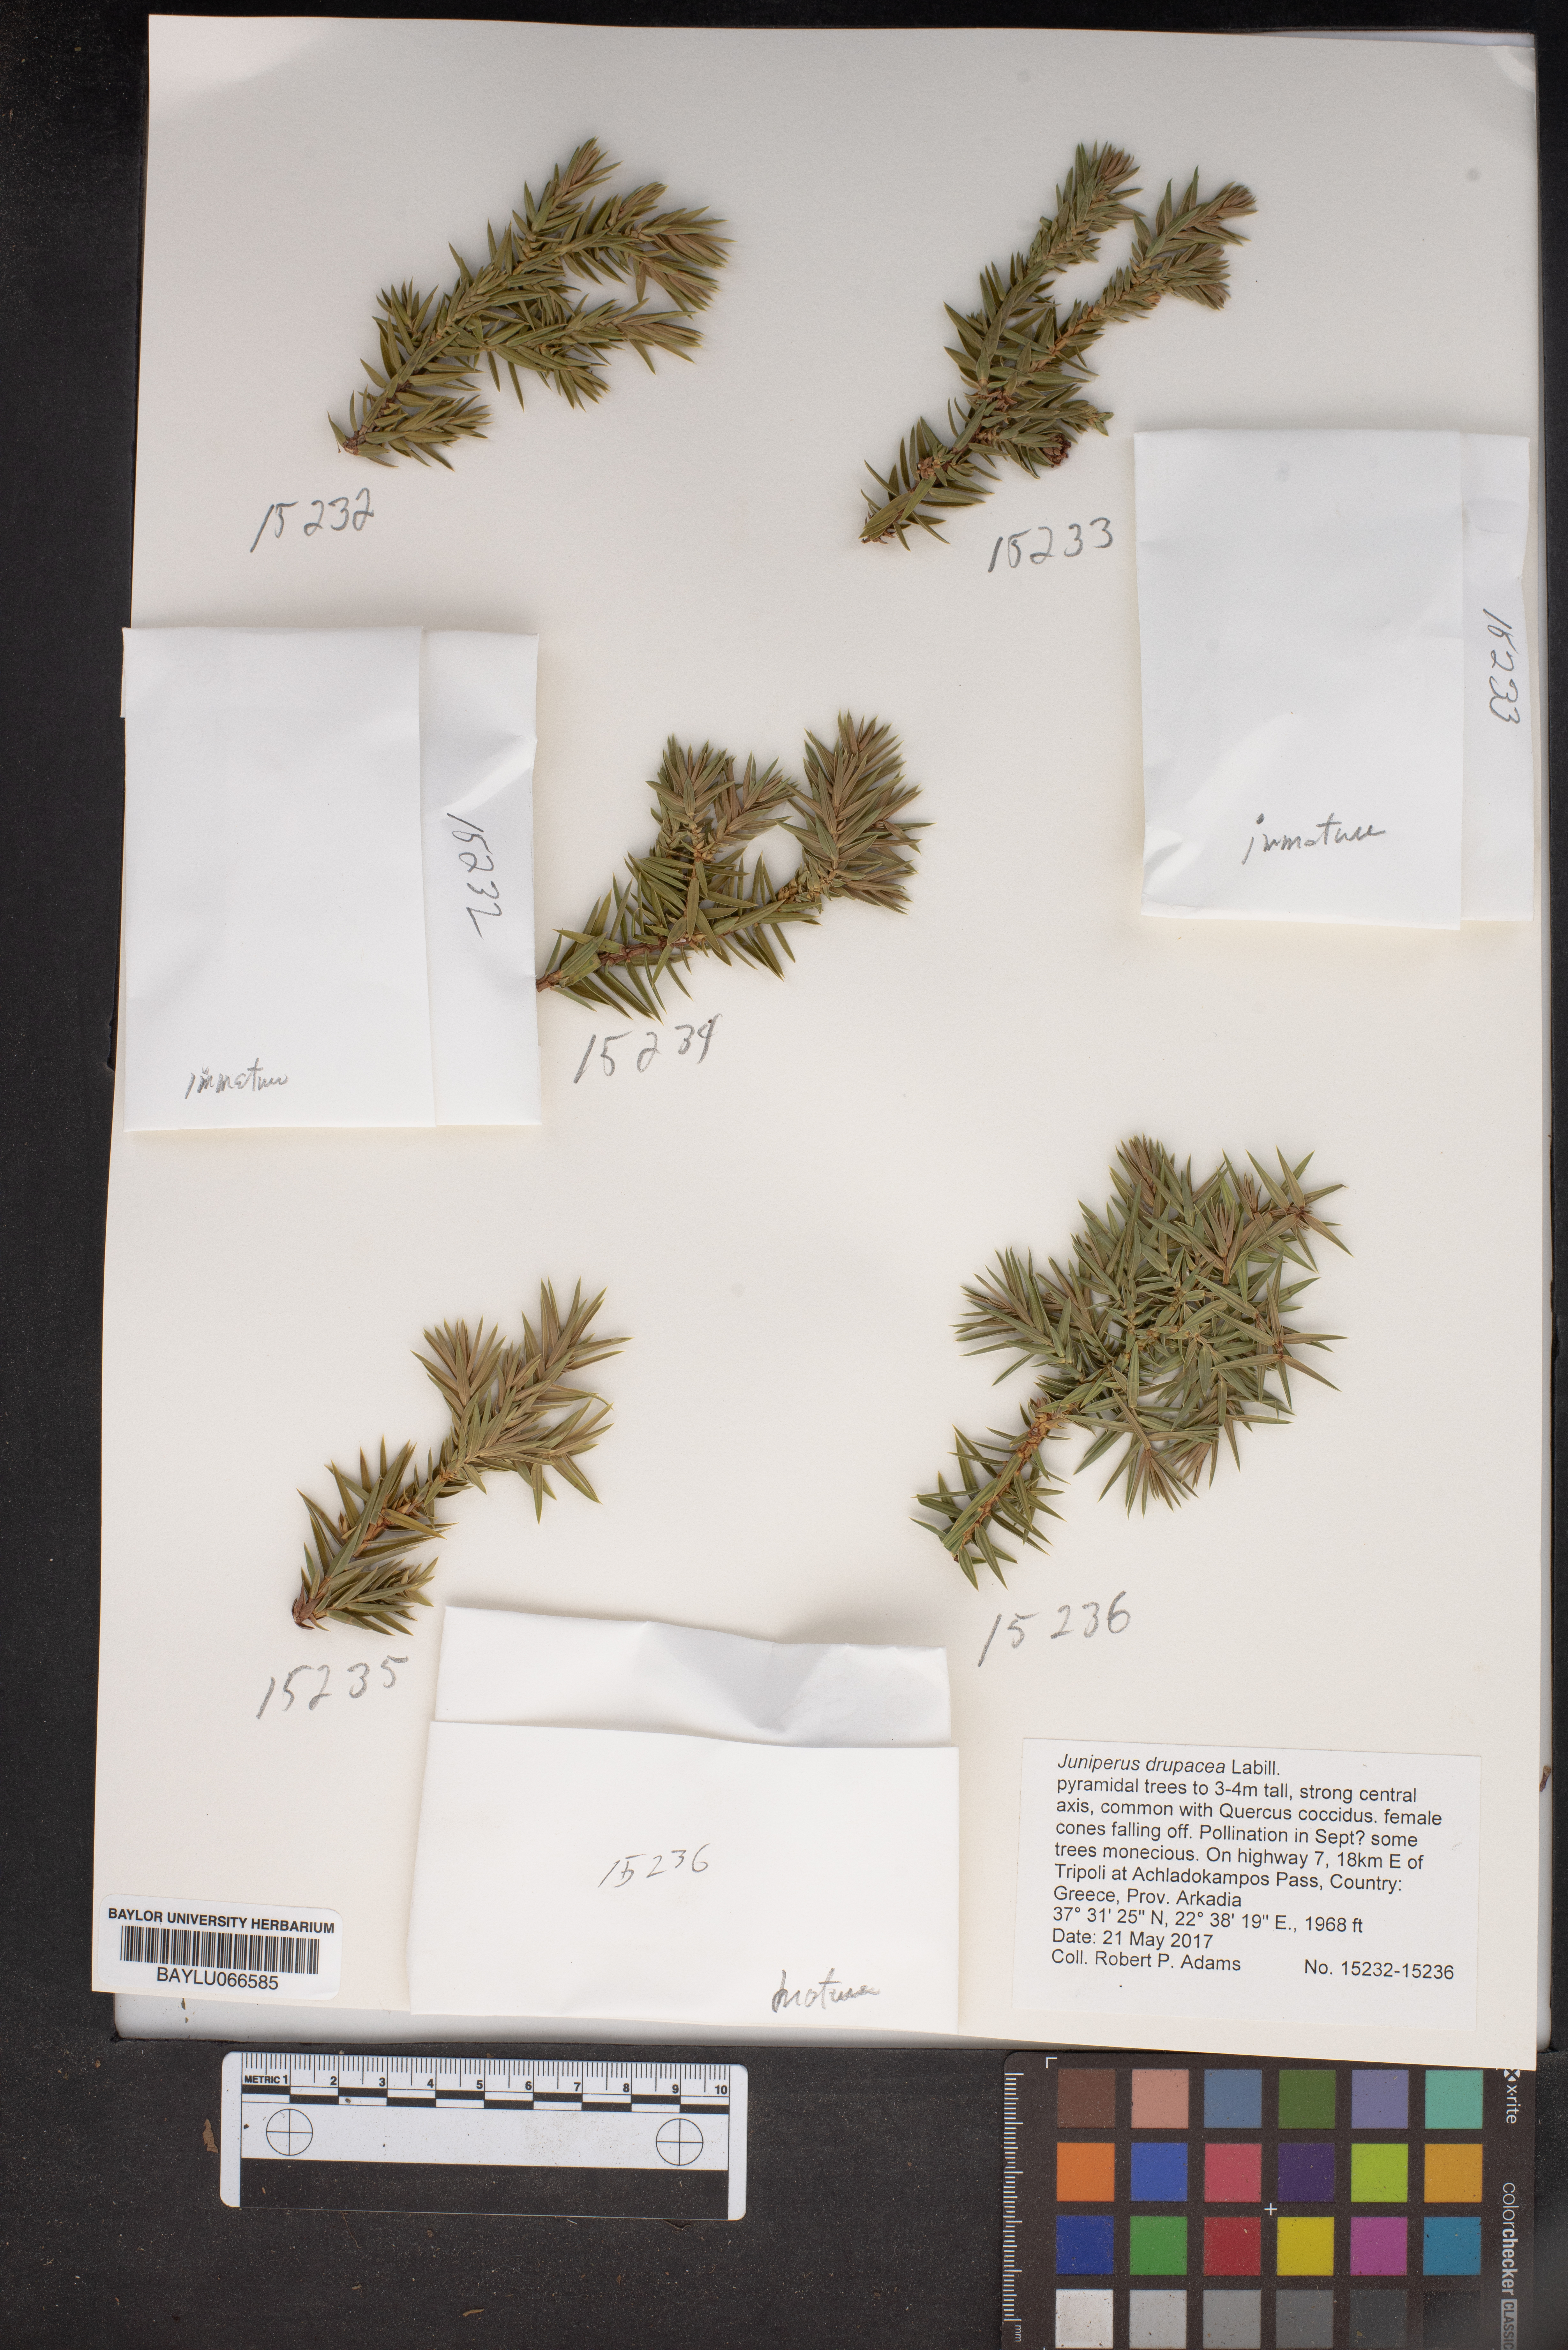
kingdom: Plantae
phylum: Tracheophyta
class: Pinopsida
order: Pinales
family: Cupressaceae
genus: Juniperus
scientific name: Juniperus drupacea
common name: Syrian juniper
